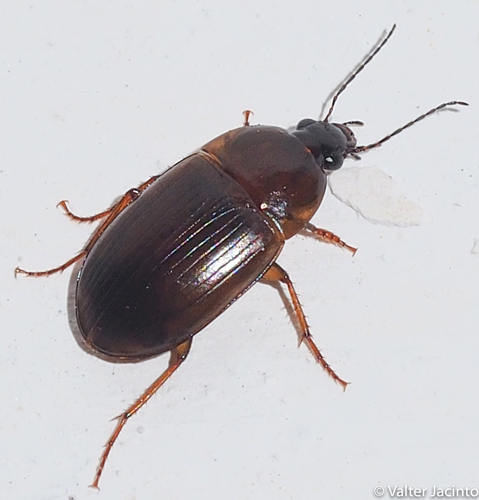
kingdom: Animalia
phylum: Arthropoda
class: Insecta
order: Coleoptera
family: Carabidae
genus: Oodes
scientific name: Oodes
